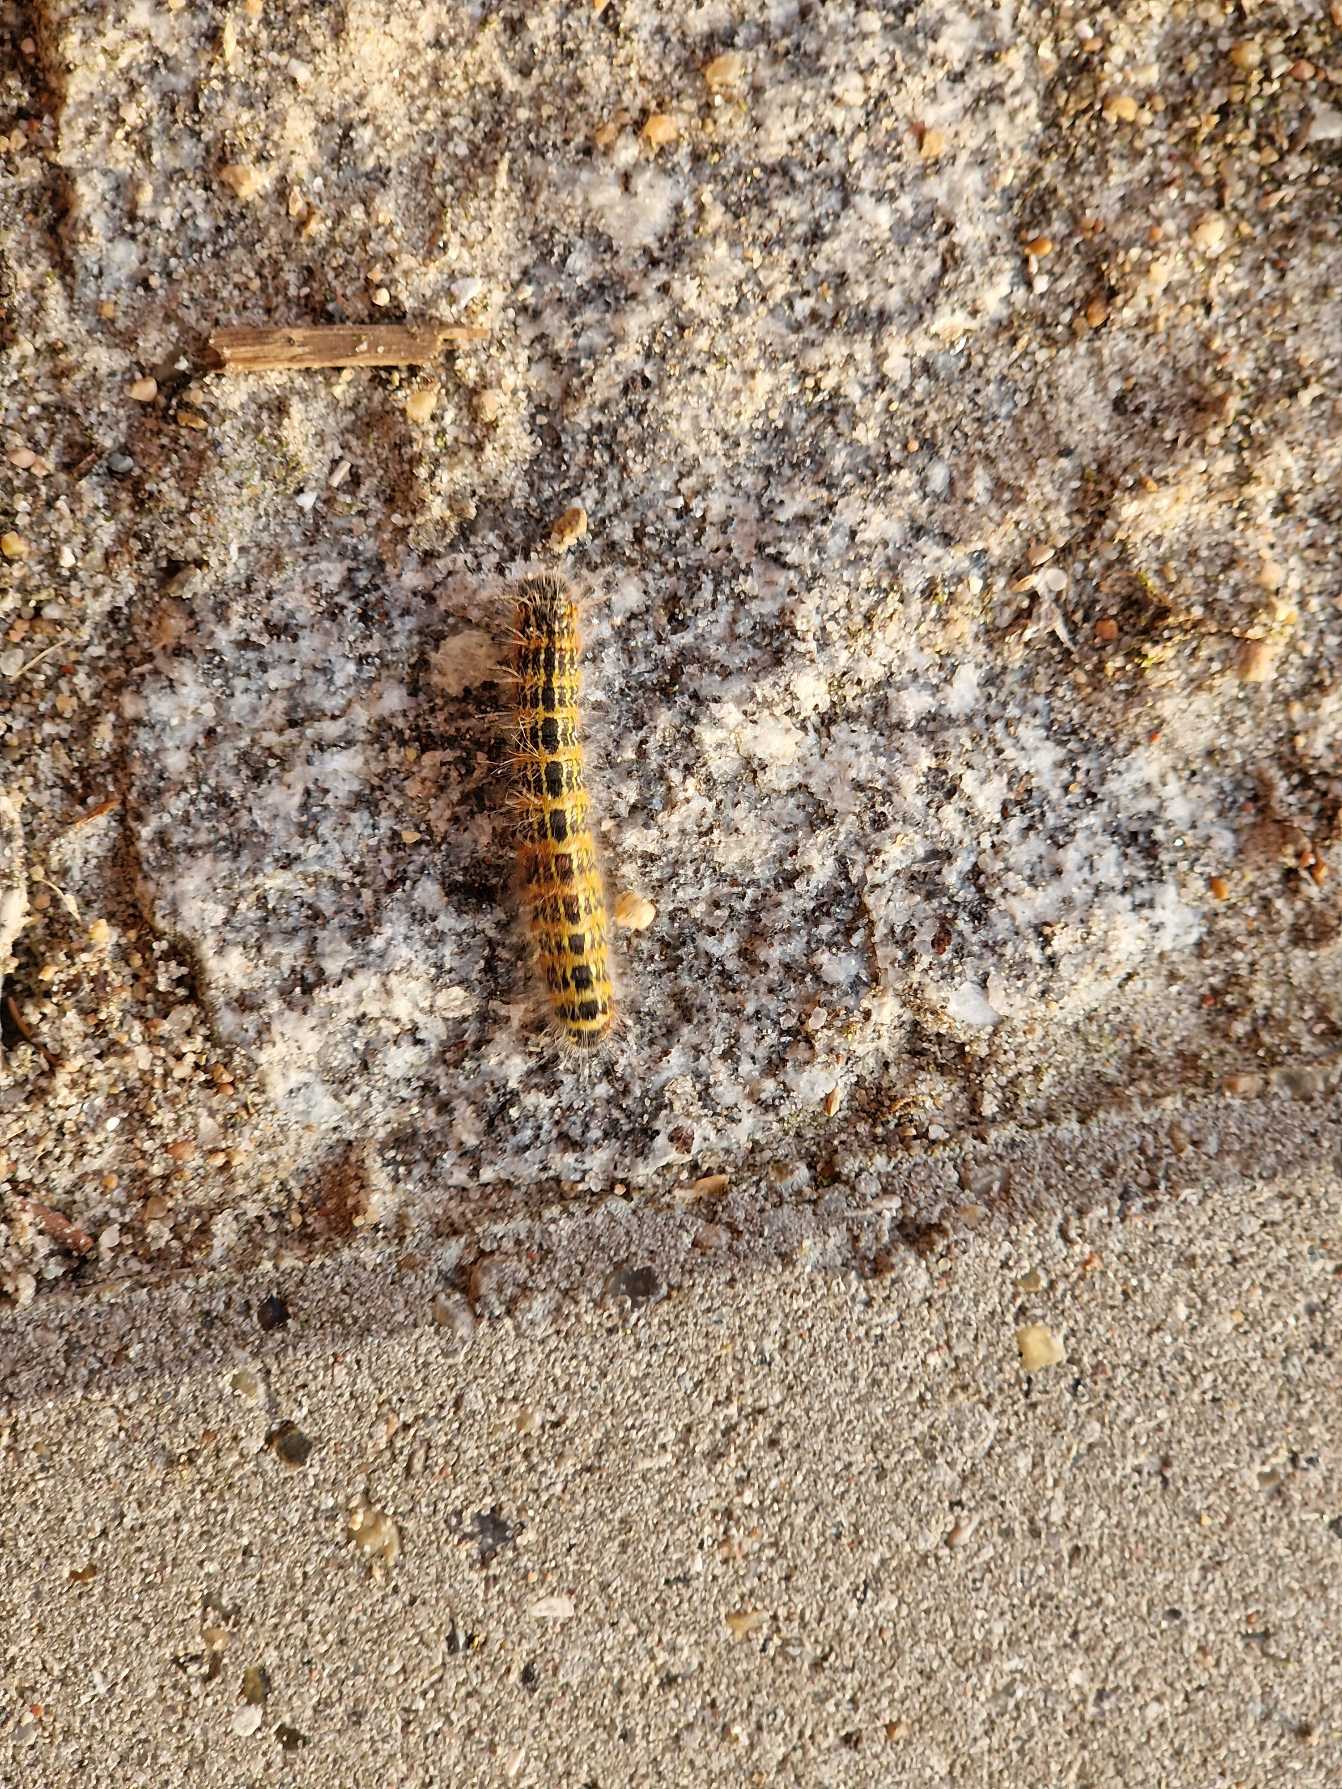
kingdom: Animalia
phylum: Arthropoda
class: Insecta
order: Lepidoptera
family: Notodontidae
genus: Phalera
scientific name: Phalera bucephala
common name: Måneplet
